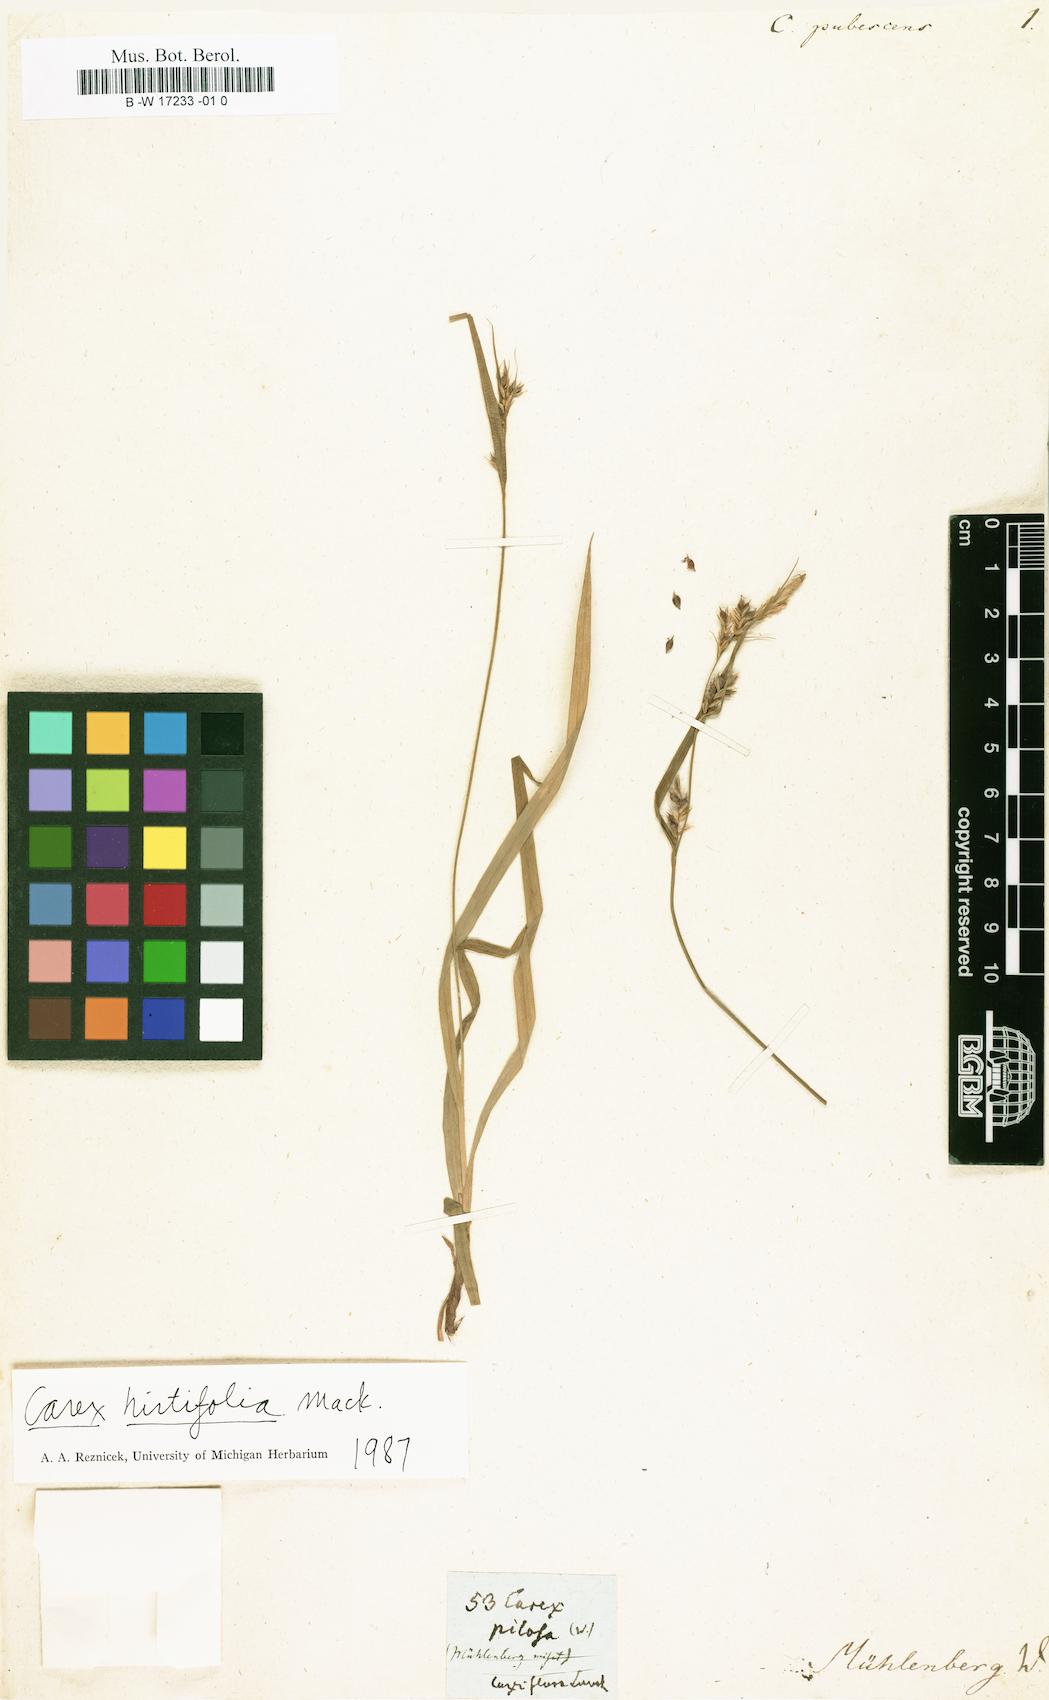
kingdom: Plantae
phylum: Tracheophyta
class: Liliopsida
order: Poales
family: Cyperaceae
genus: Fuirena
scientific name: Fuirena pubescens
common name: Hairy sedge
